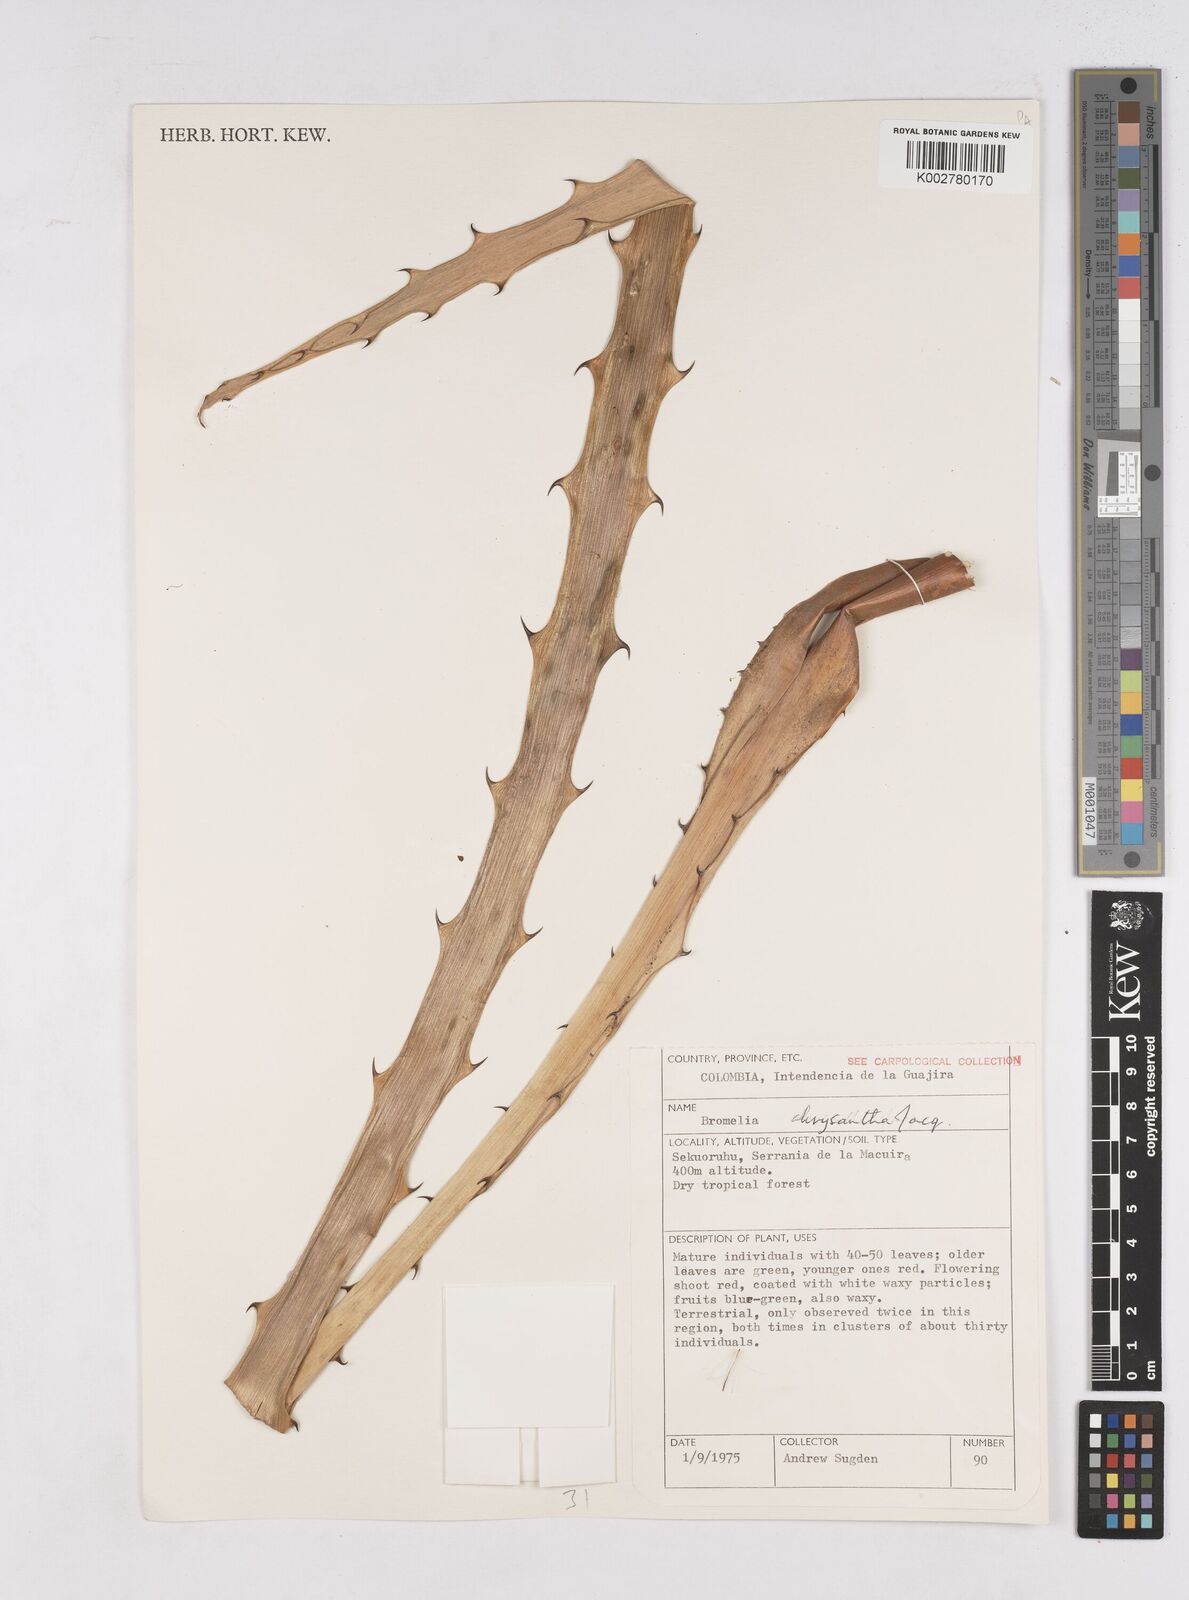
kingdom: Plantae
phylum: Tracheophyta
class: Liliopsida
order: Poales
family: Bromeliaceae
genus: Bromelia
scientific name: Bromelia chrysantha
